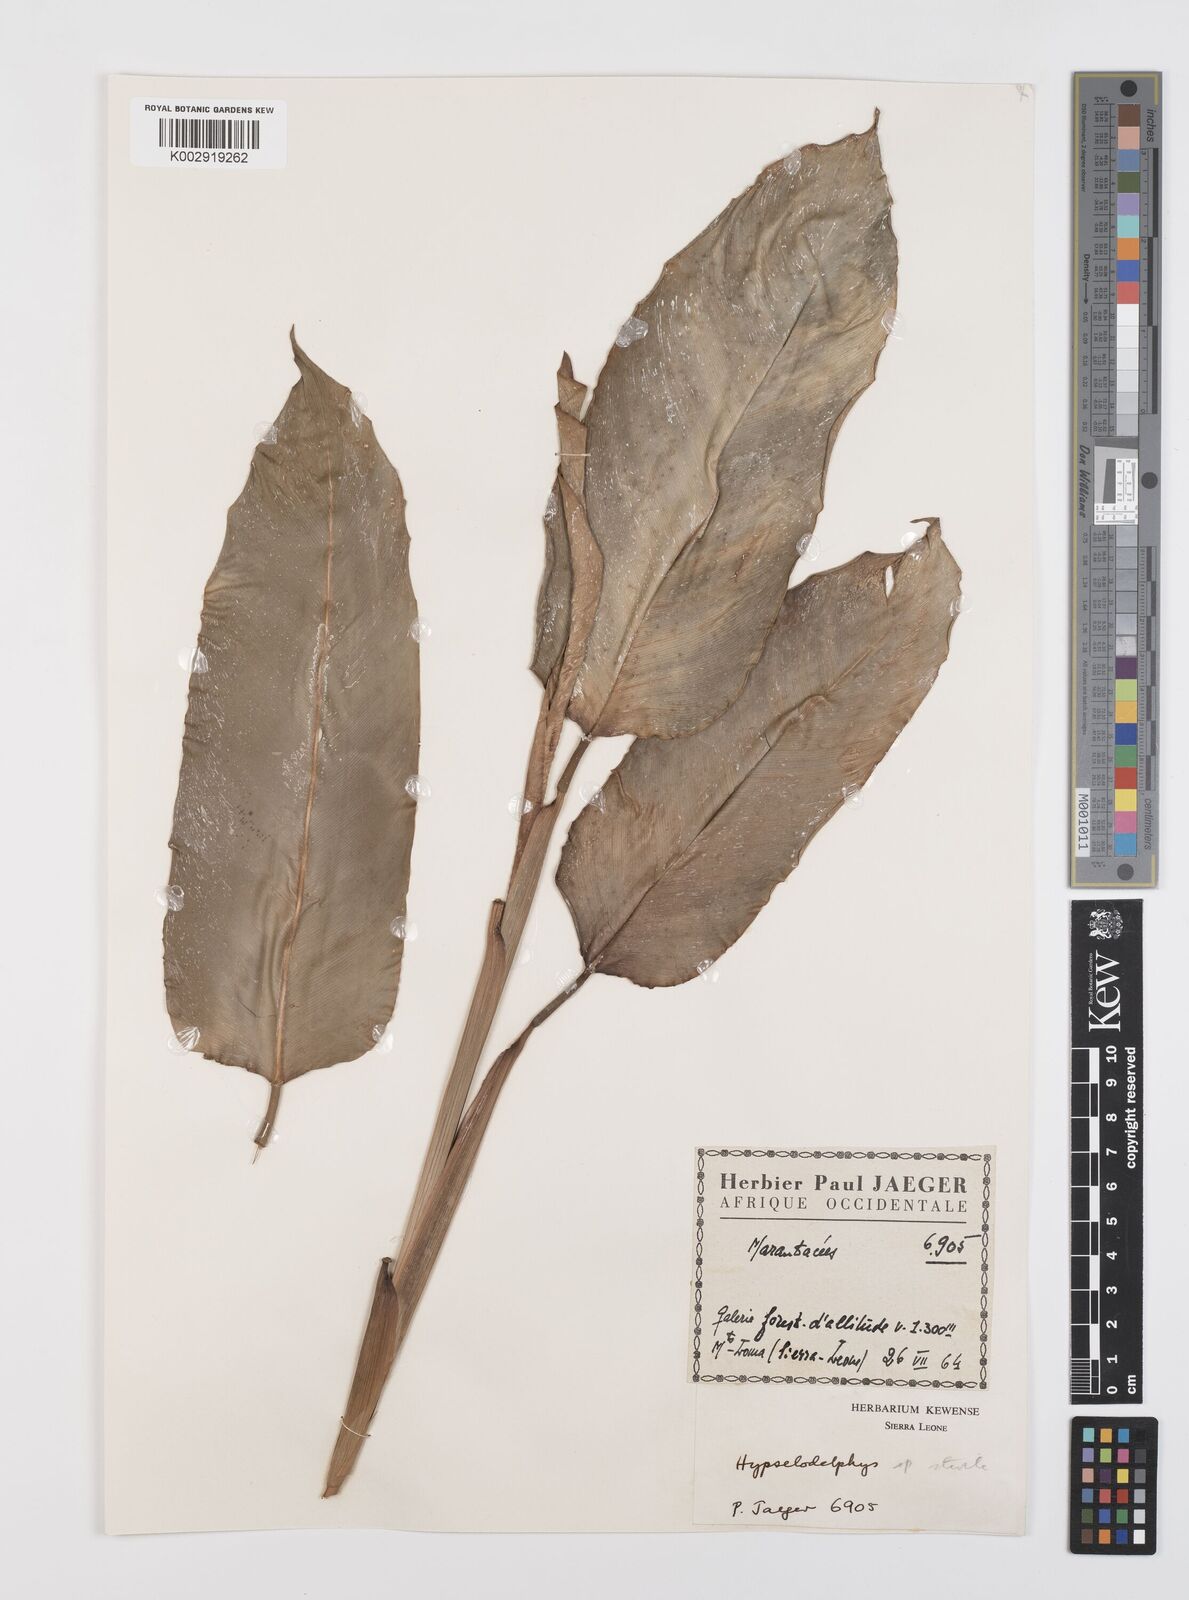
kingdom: Plantae
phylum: Tracheophyta
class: Liliopsida
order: Zingiberales
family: Marantaceae
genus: Hypselodelphys
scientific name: Hypselodelphys
